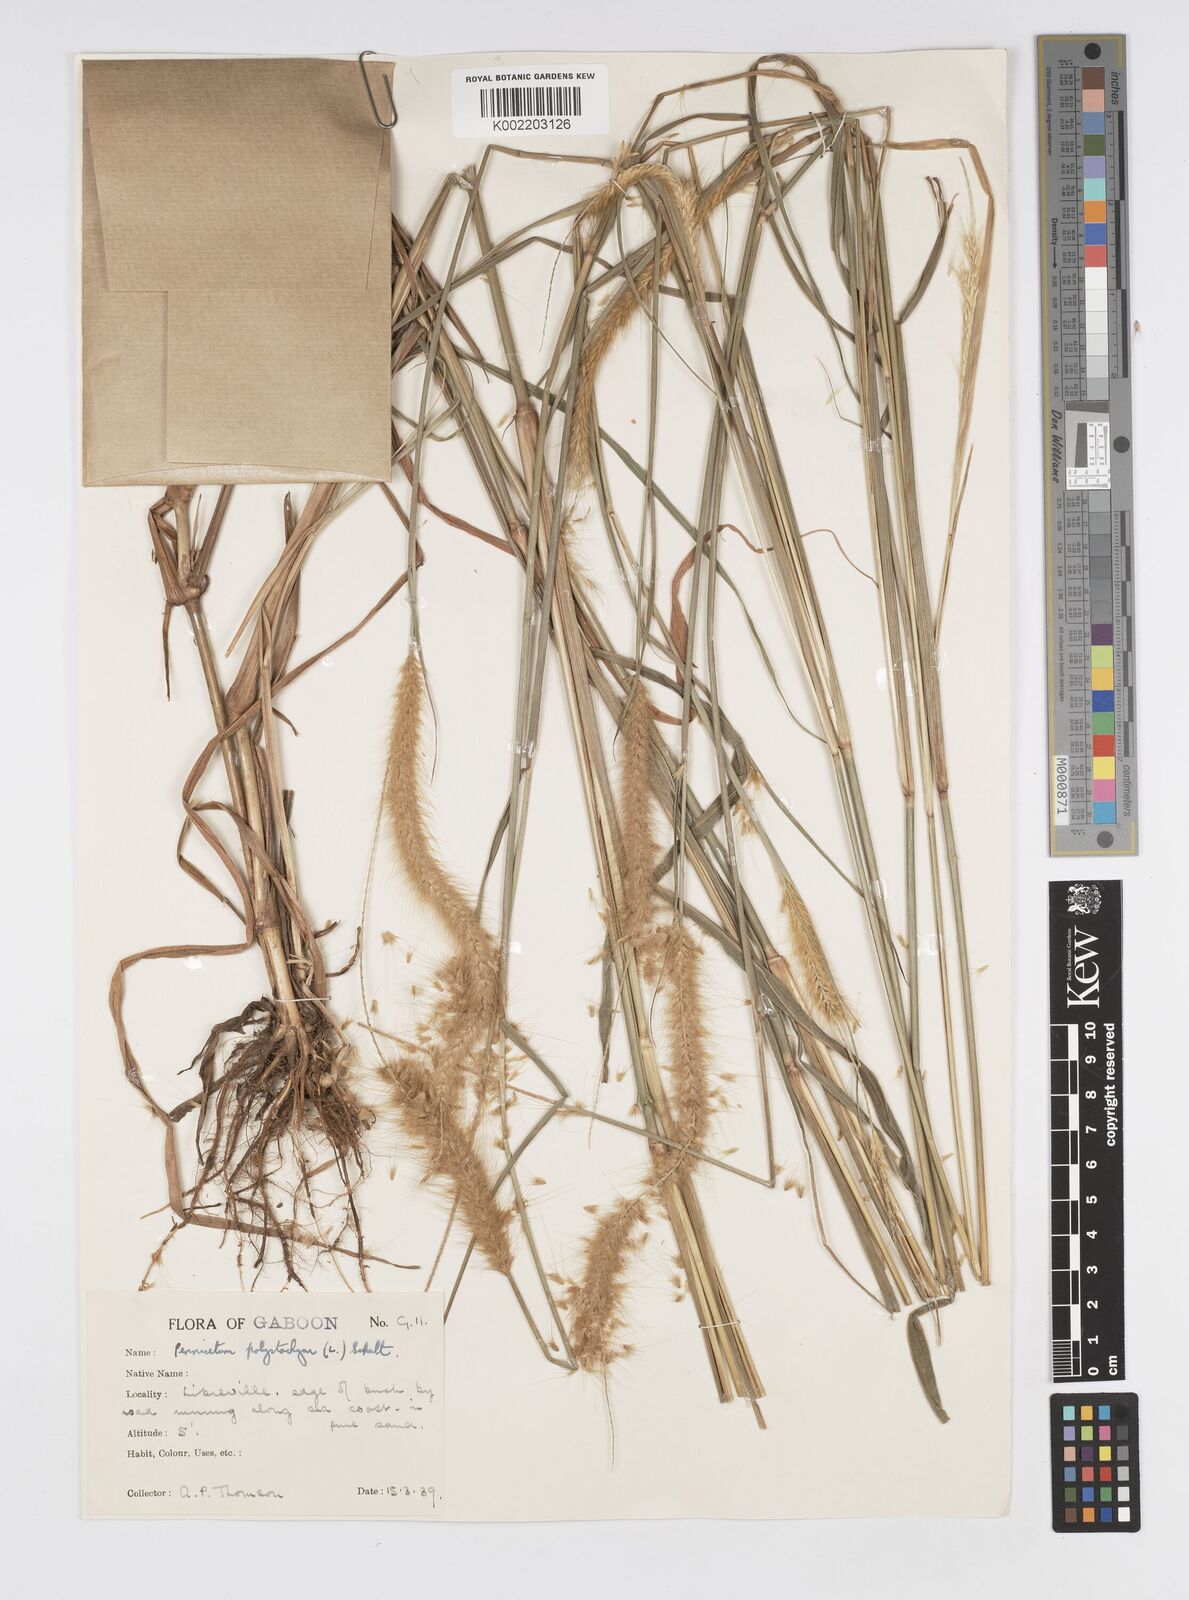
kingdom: Plantae
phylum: Tracheophyta
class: Liliopsida
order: Poales
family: Poaceae
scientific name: Poaceae
